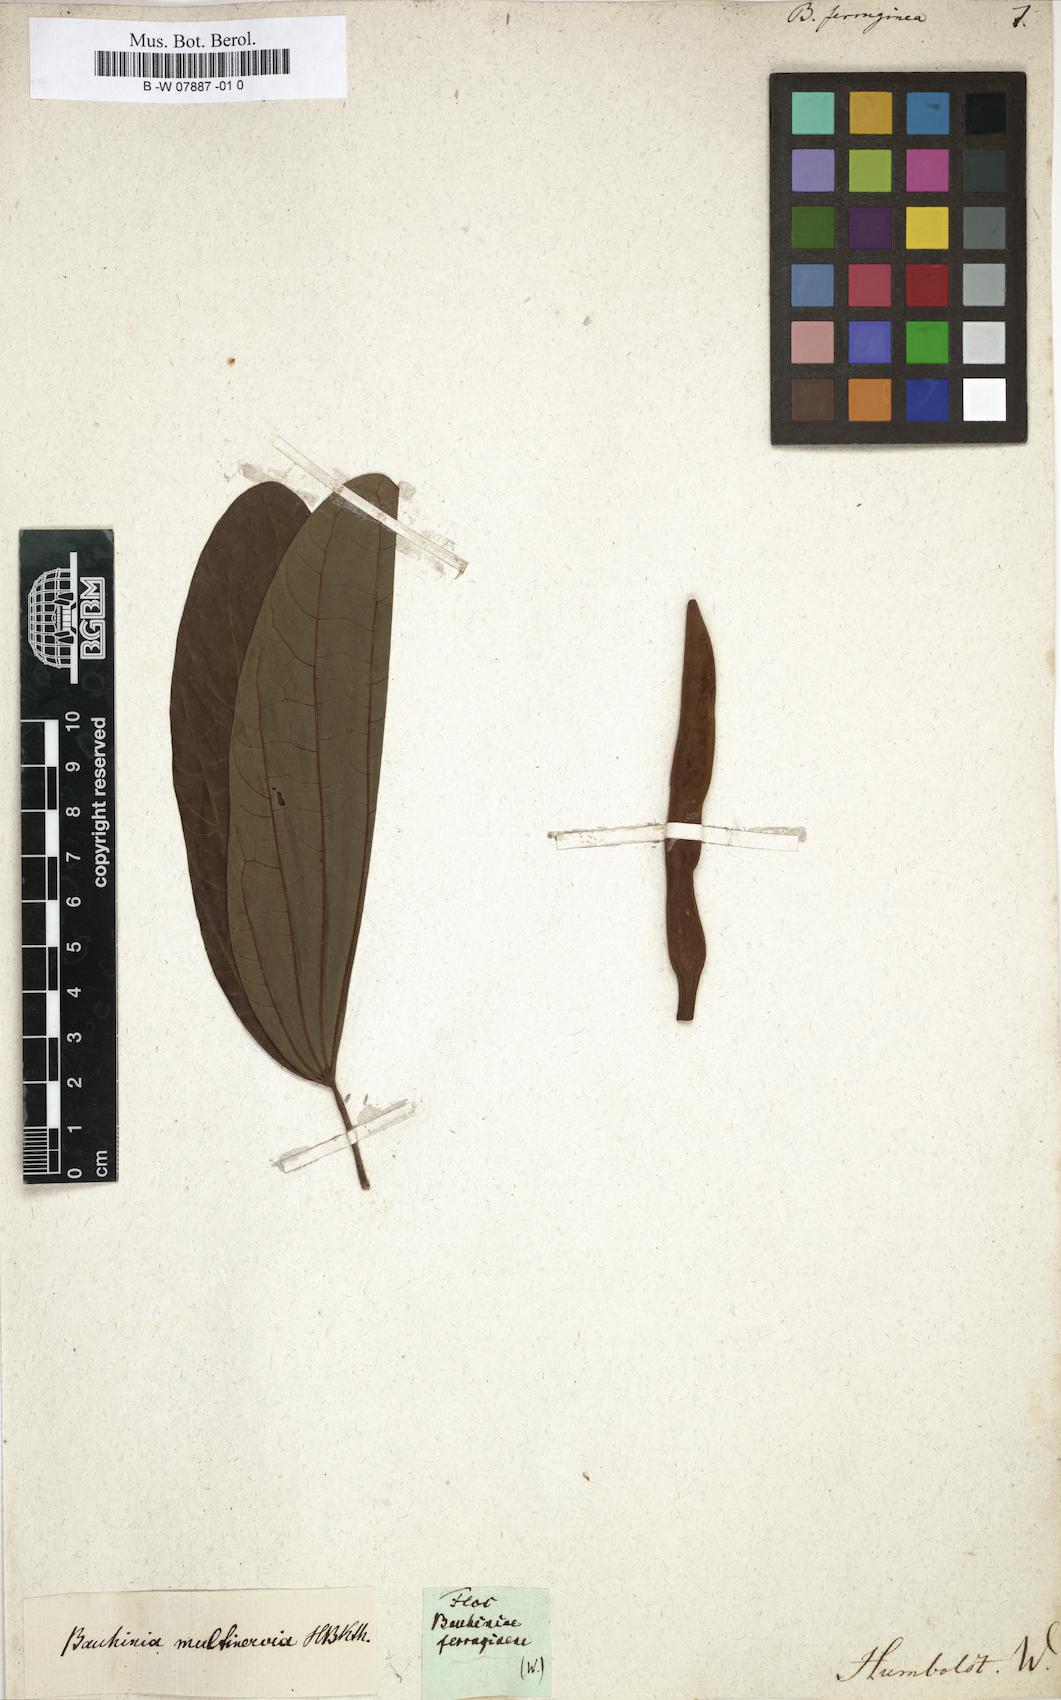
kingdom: Plantae
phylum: Tracheophyta
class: Magnoliopsida
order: Fabales
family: Fabaceae
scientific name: Fabaceae
